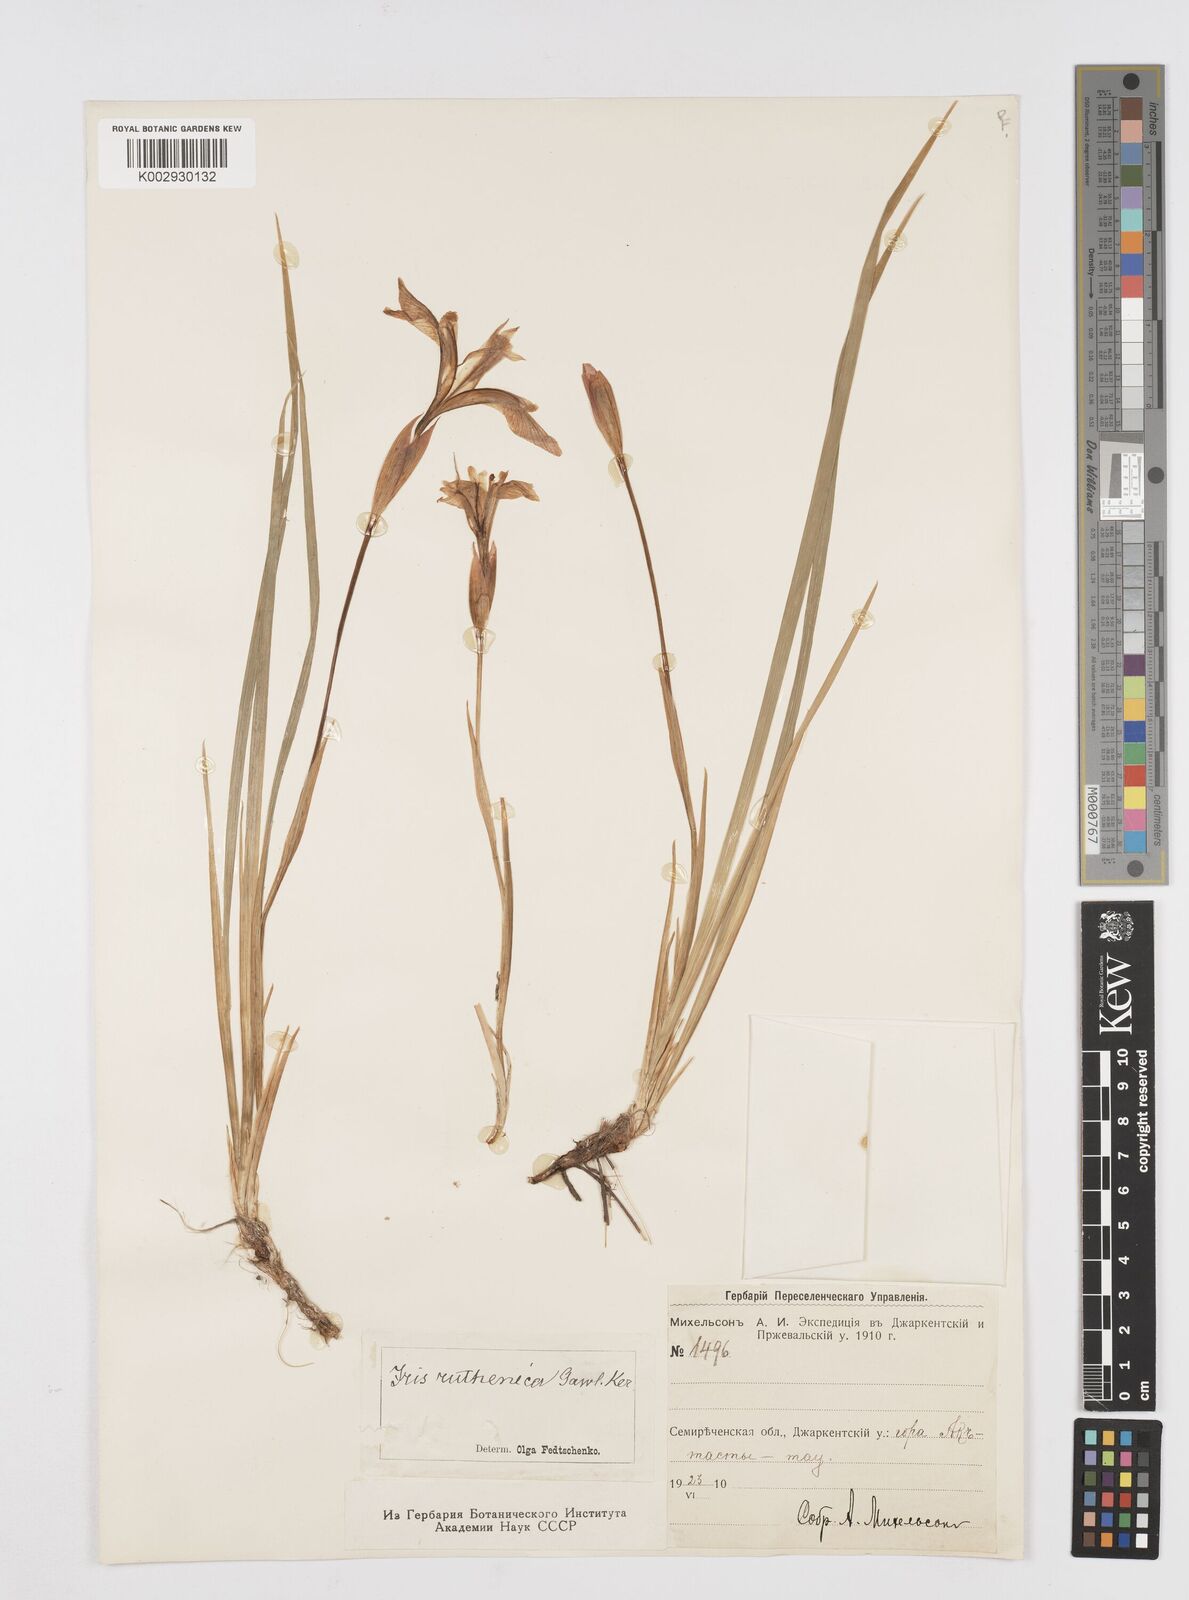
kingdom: Plantae
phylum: Tracheophyta
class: Liliopsida
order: Asparagales
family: Iridaceae
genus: Iris
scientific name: Iris ruthenica
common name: Purple-bract iris
